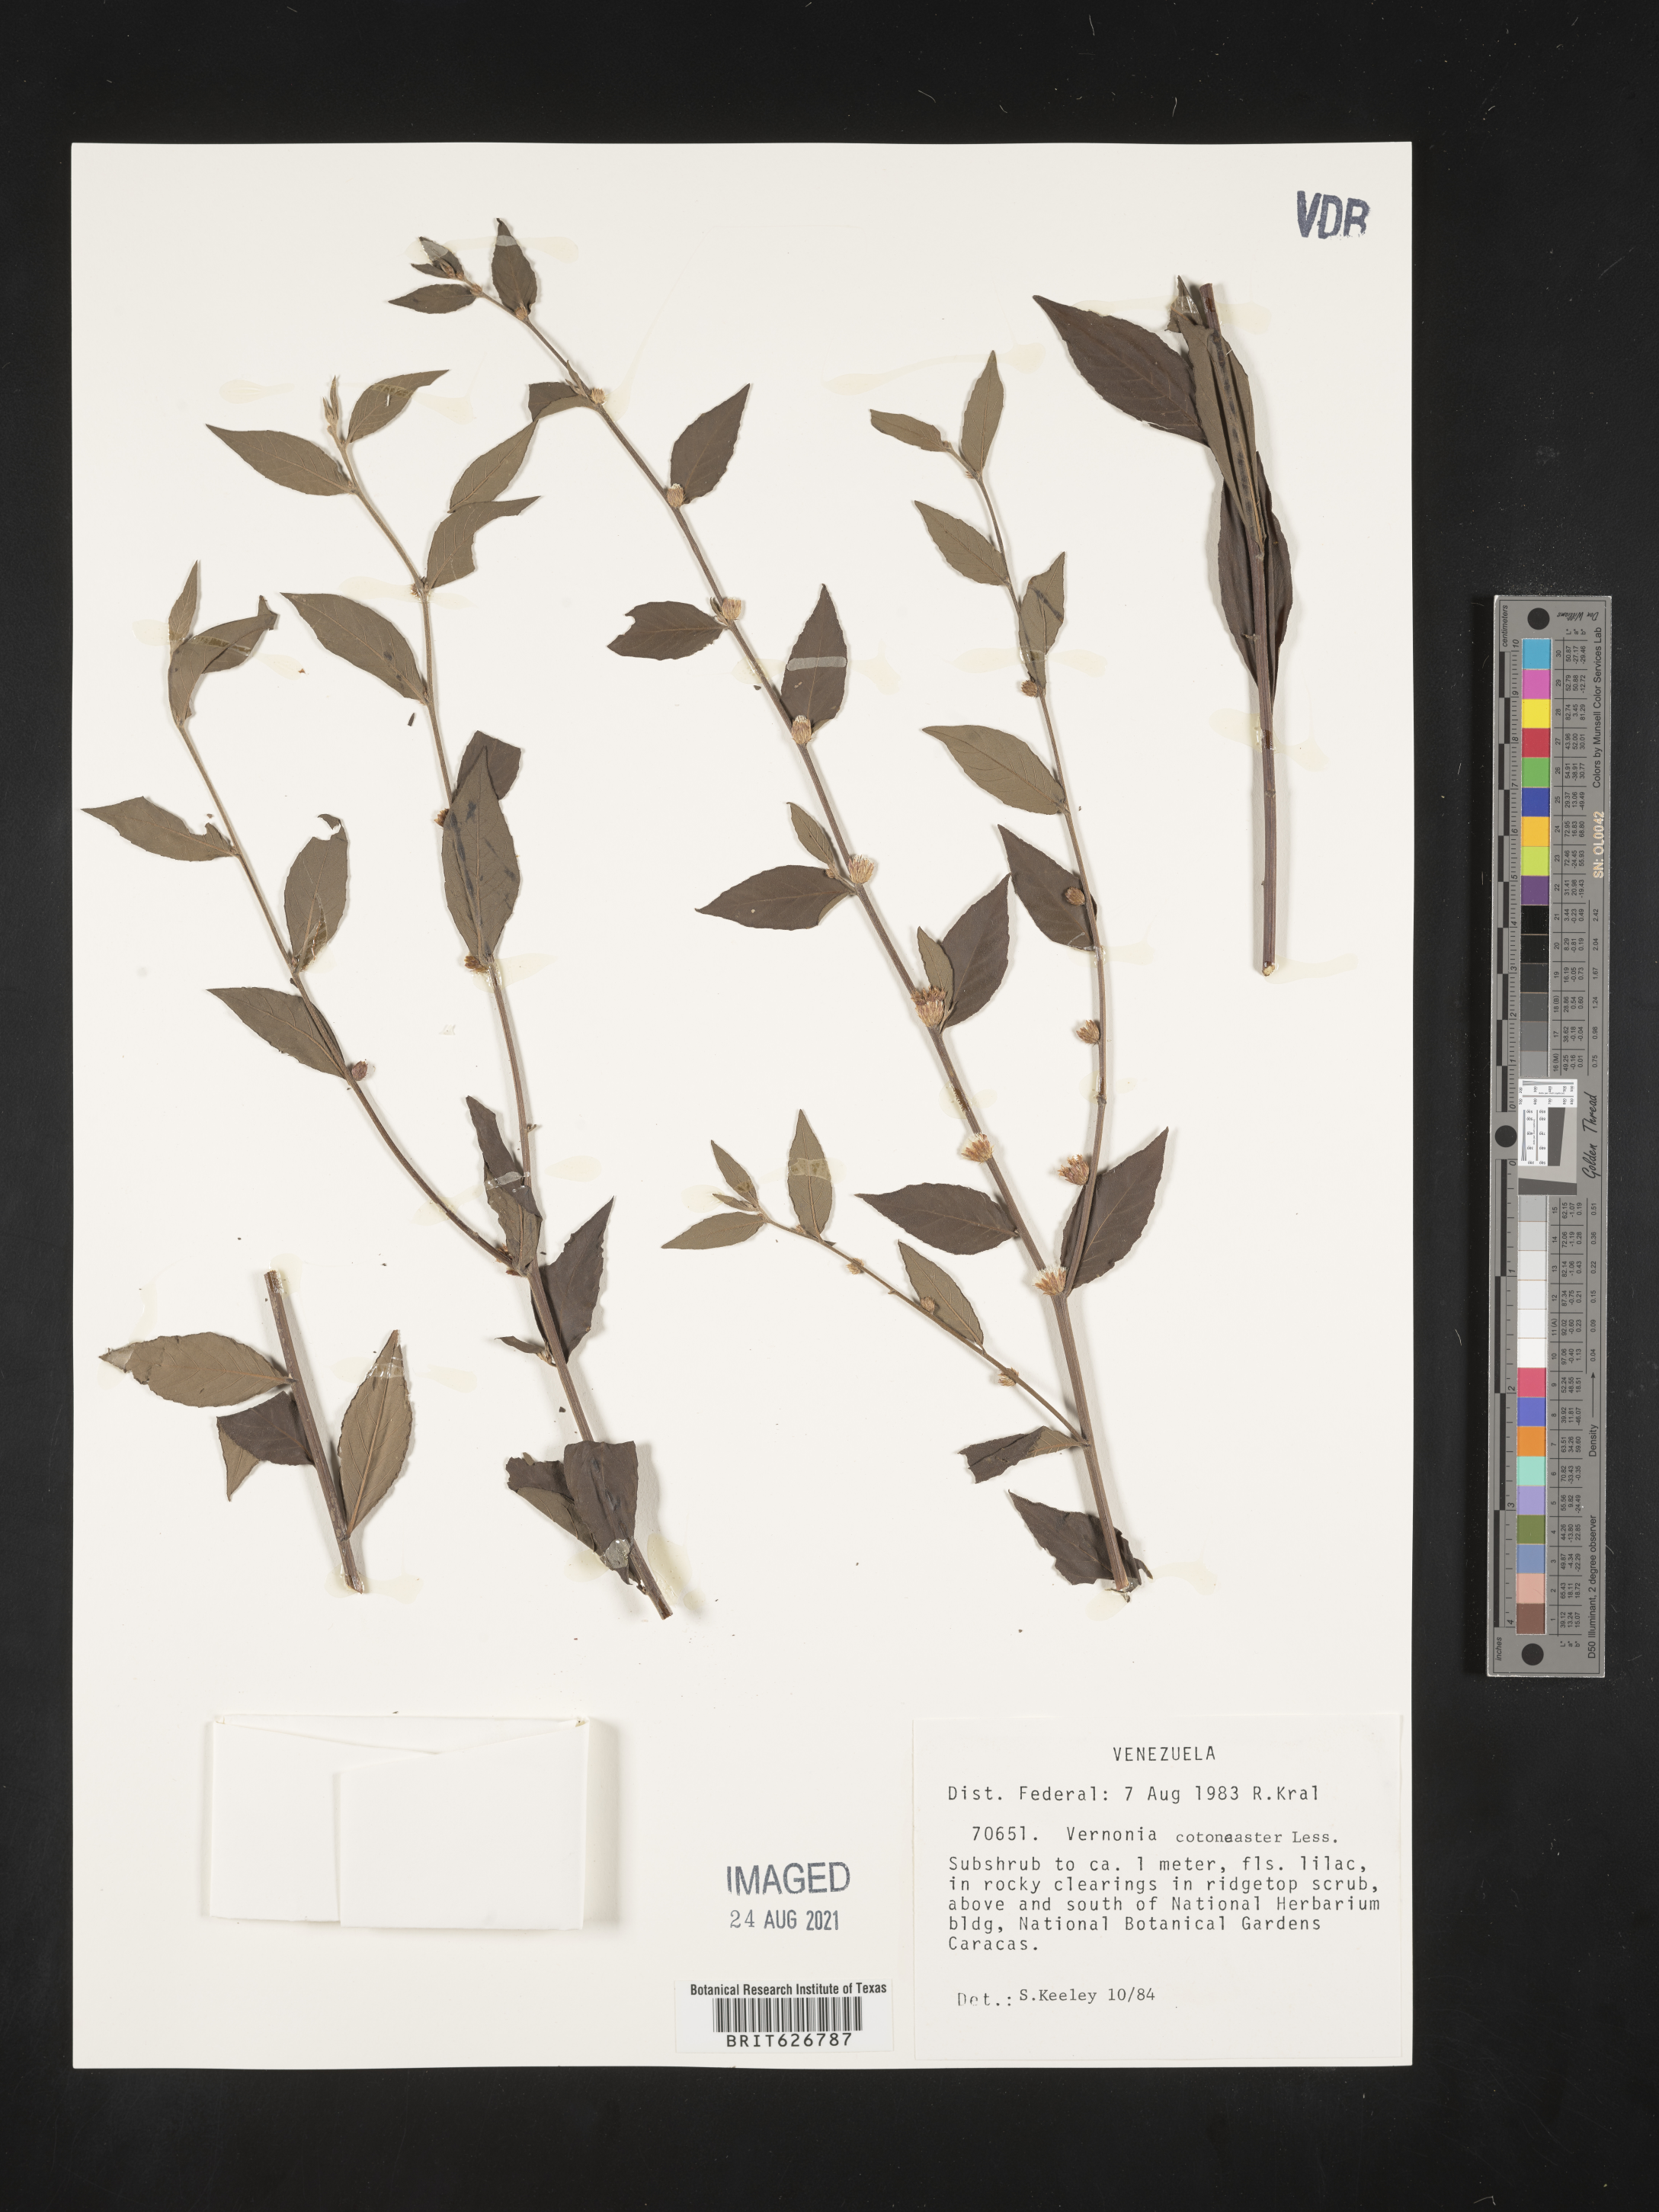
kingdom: Plantae
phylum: Tracheophyta
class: Magnoliopsida
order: Asterales
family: Asteraceae
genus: Lepidaploa
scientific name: Lepidaploa cotoneaster
